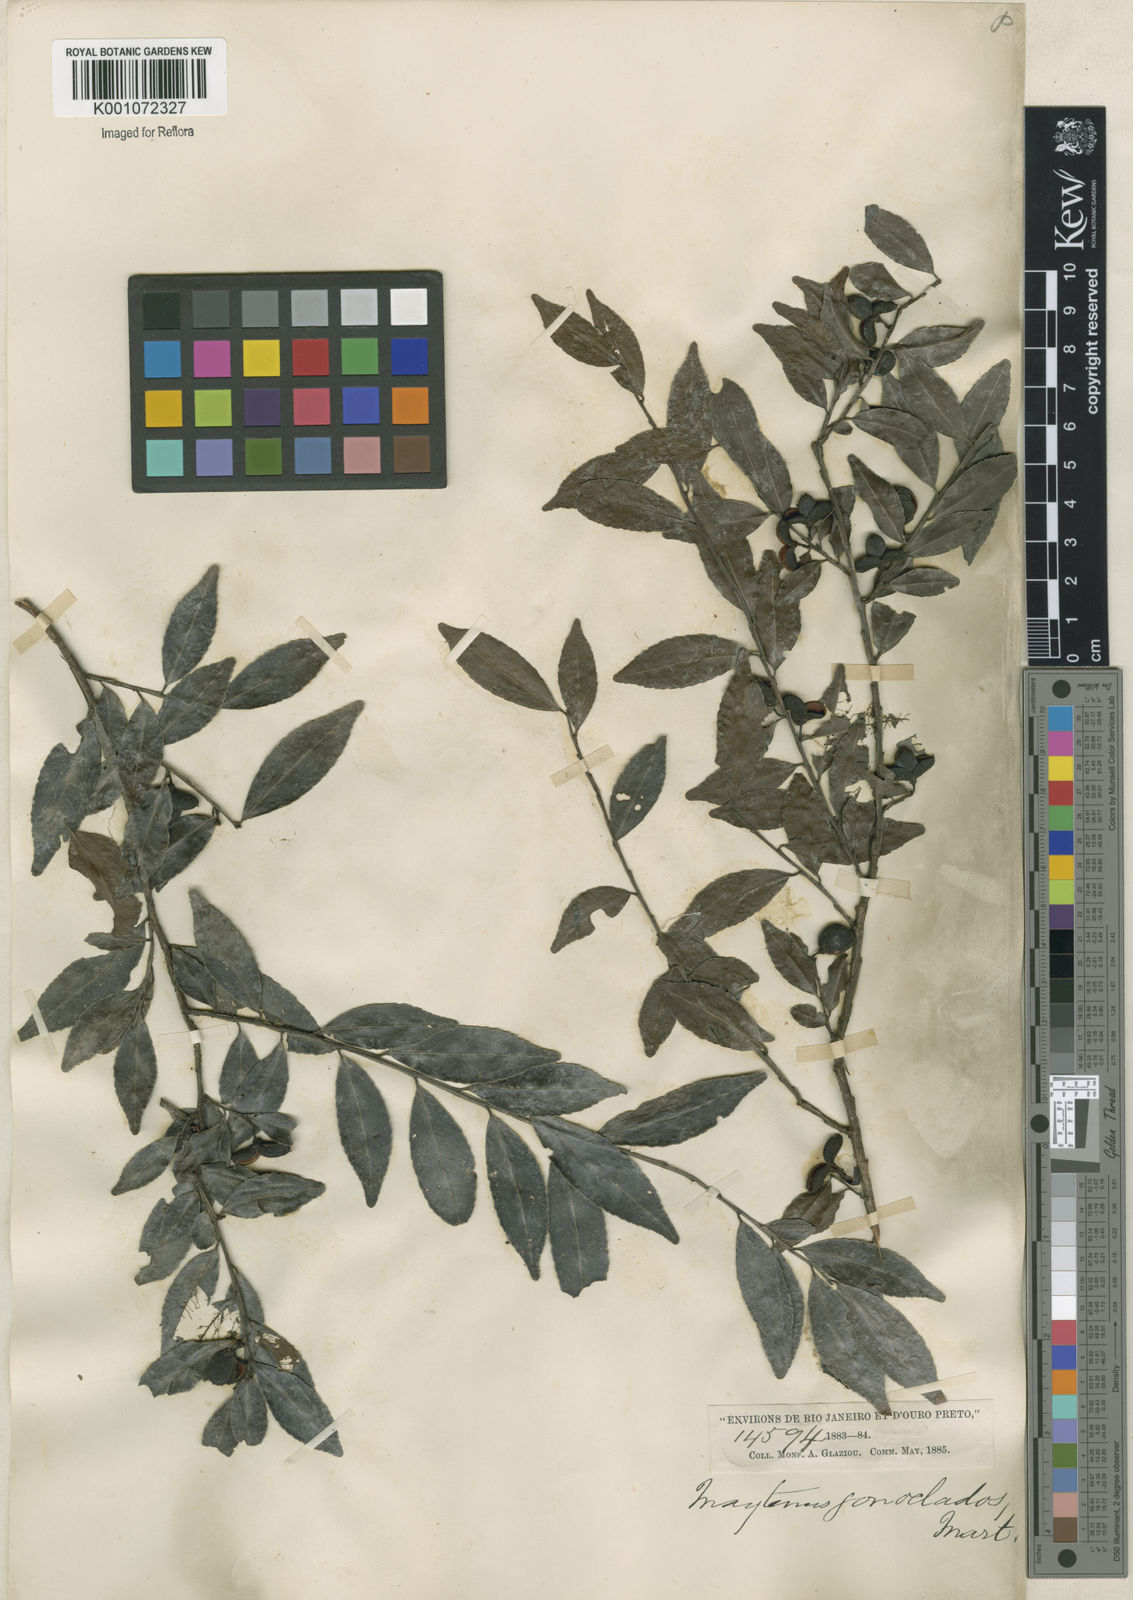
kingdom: Plantae
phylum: Tracheophyta
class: Magnoliopsida
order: Celastrales
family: Celastraceae
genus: Maytenus
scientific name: Maytenus
